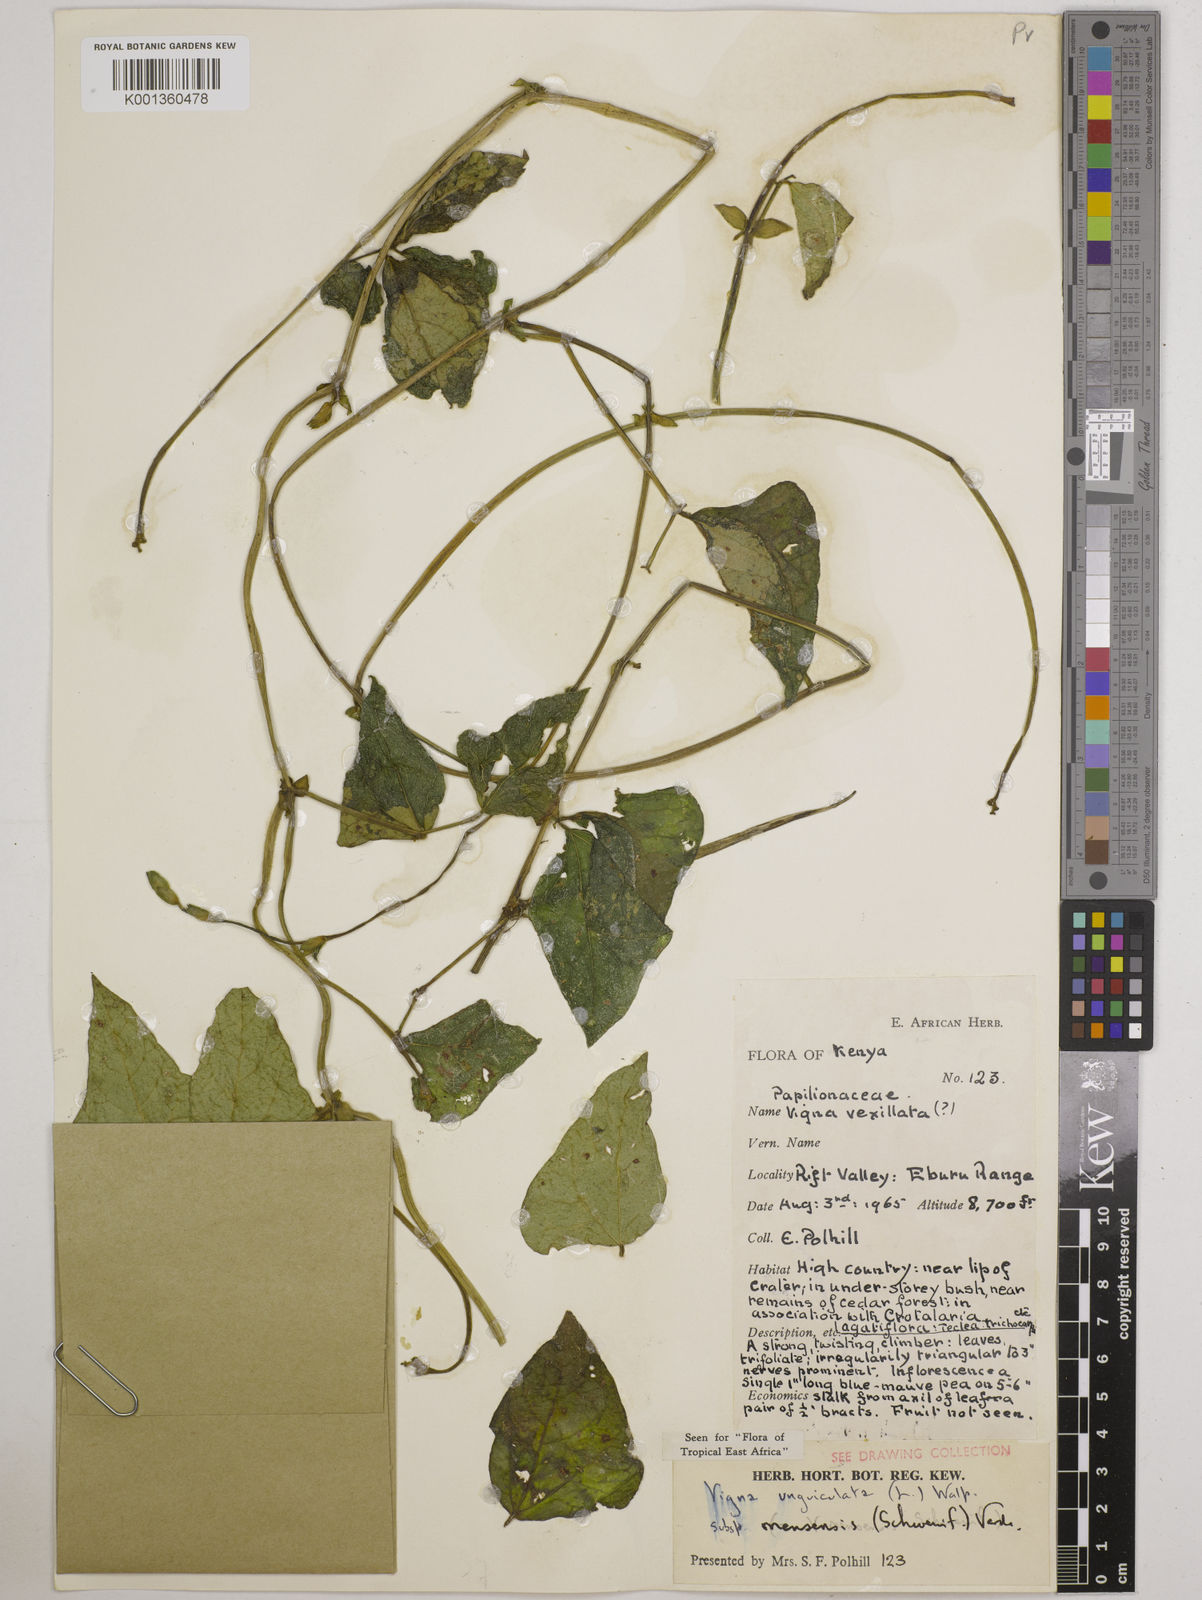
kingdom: Plantae
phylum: Tracheophyta
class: Magnoliopsida
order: Fabales
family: Fabaceae
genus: Vigna
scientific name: Vigna unguiculata
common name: Cowpea
